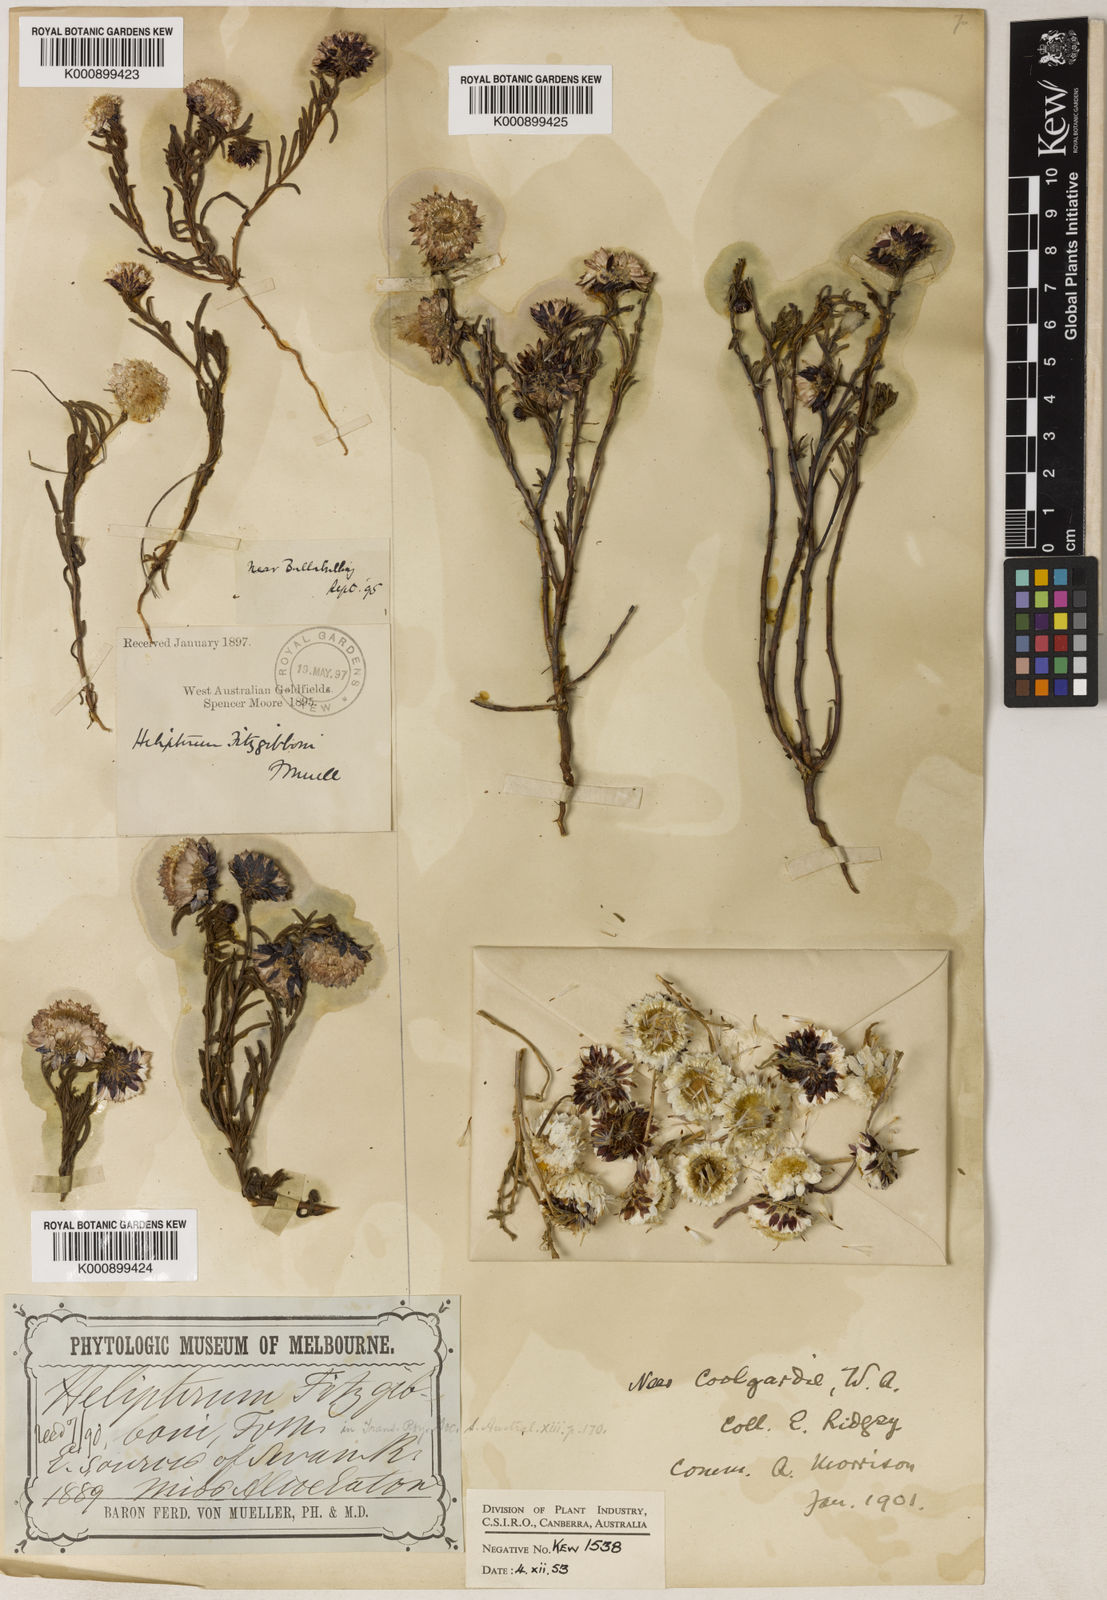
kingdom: Plantae
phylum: Tracheophyta
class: Magnoliopsida
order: Asterales
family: Asteraceae
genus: Waitzia
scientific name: Waitzia fitzgibbonii
